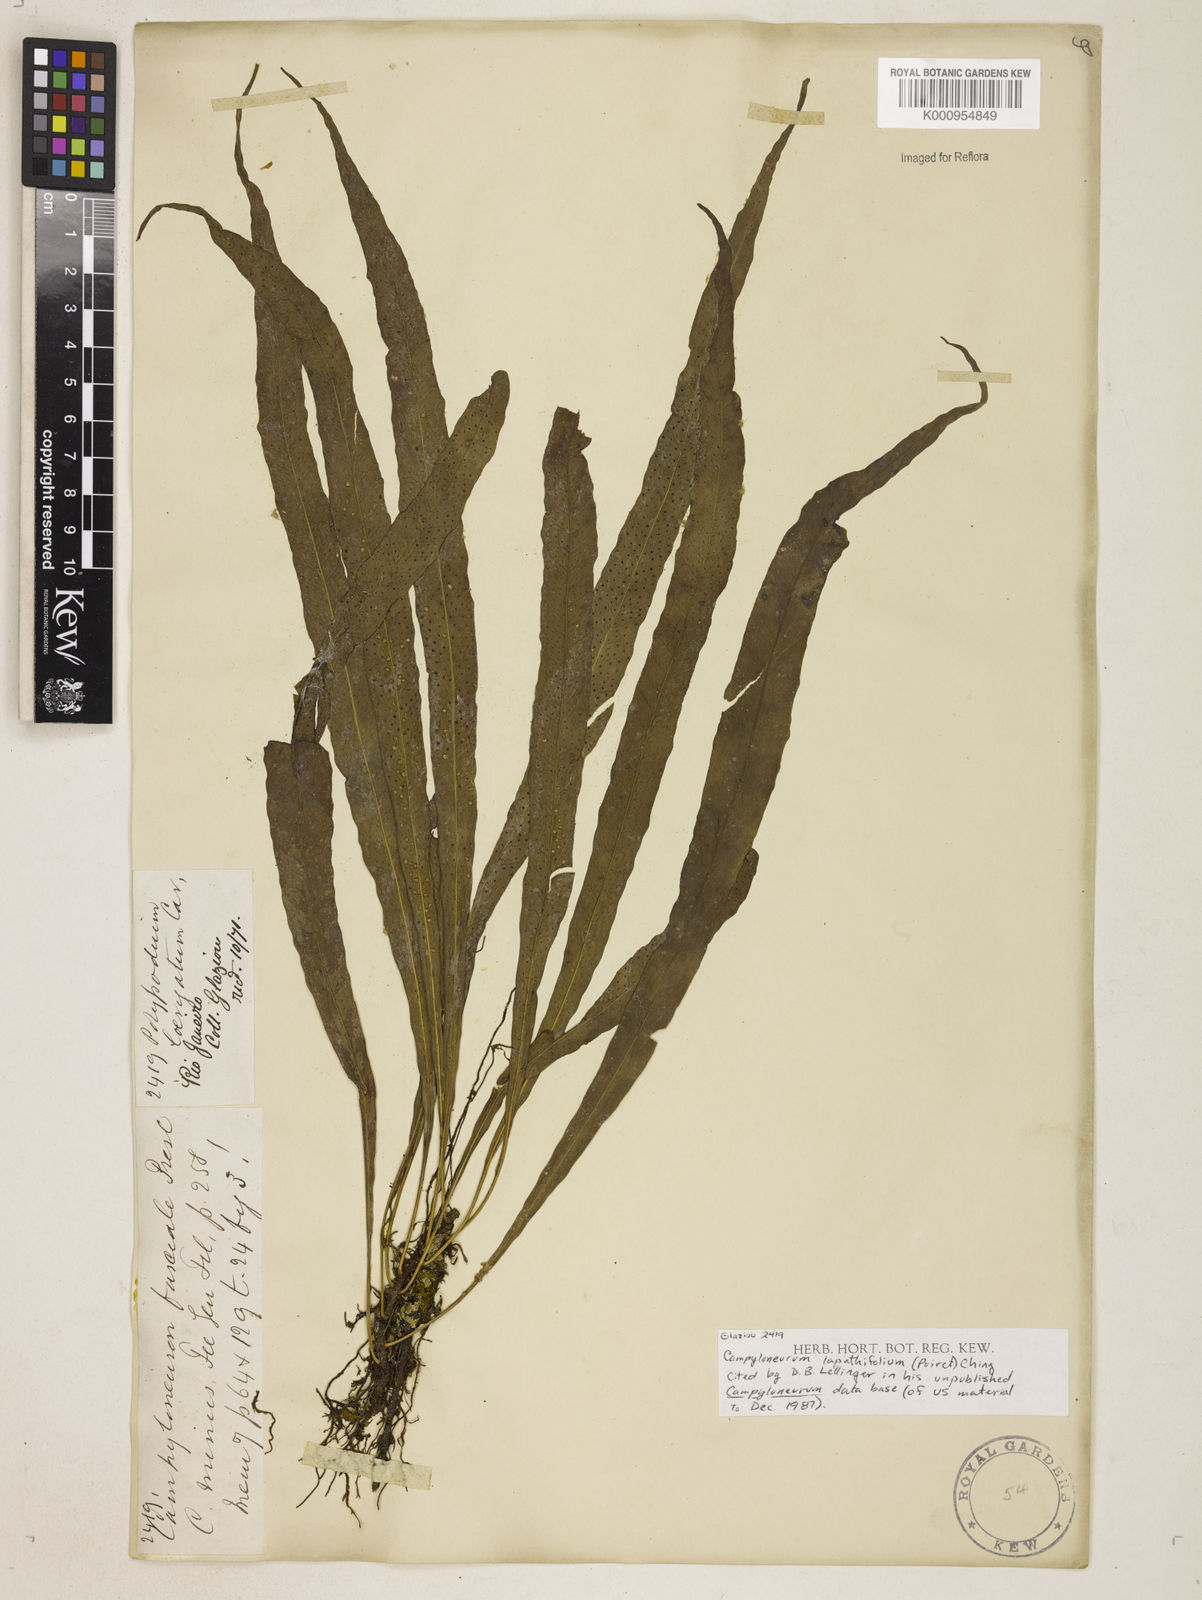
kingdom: Plantae
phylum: Tracheophyta
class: Polypodiopsida
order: Polypodiales
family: Polypodiaceae
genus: Campyloneurum
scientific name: Campyloneurum repens
